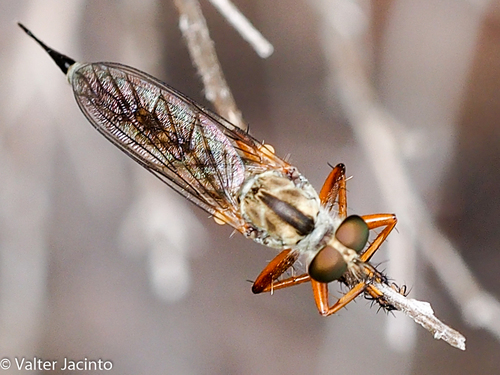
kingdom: Animalia
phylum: Arthropoda
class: Insecta
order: Diptera
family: Asilidae
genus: Neomochtherus
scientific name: Neomochtherus pallipes
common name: Devon red-legged robberfly
